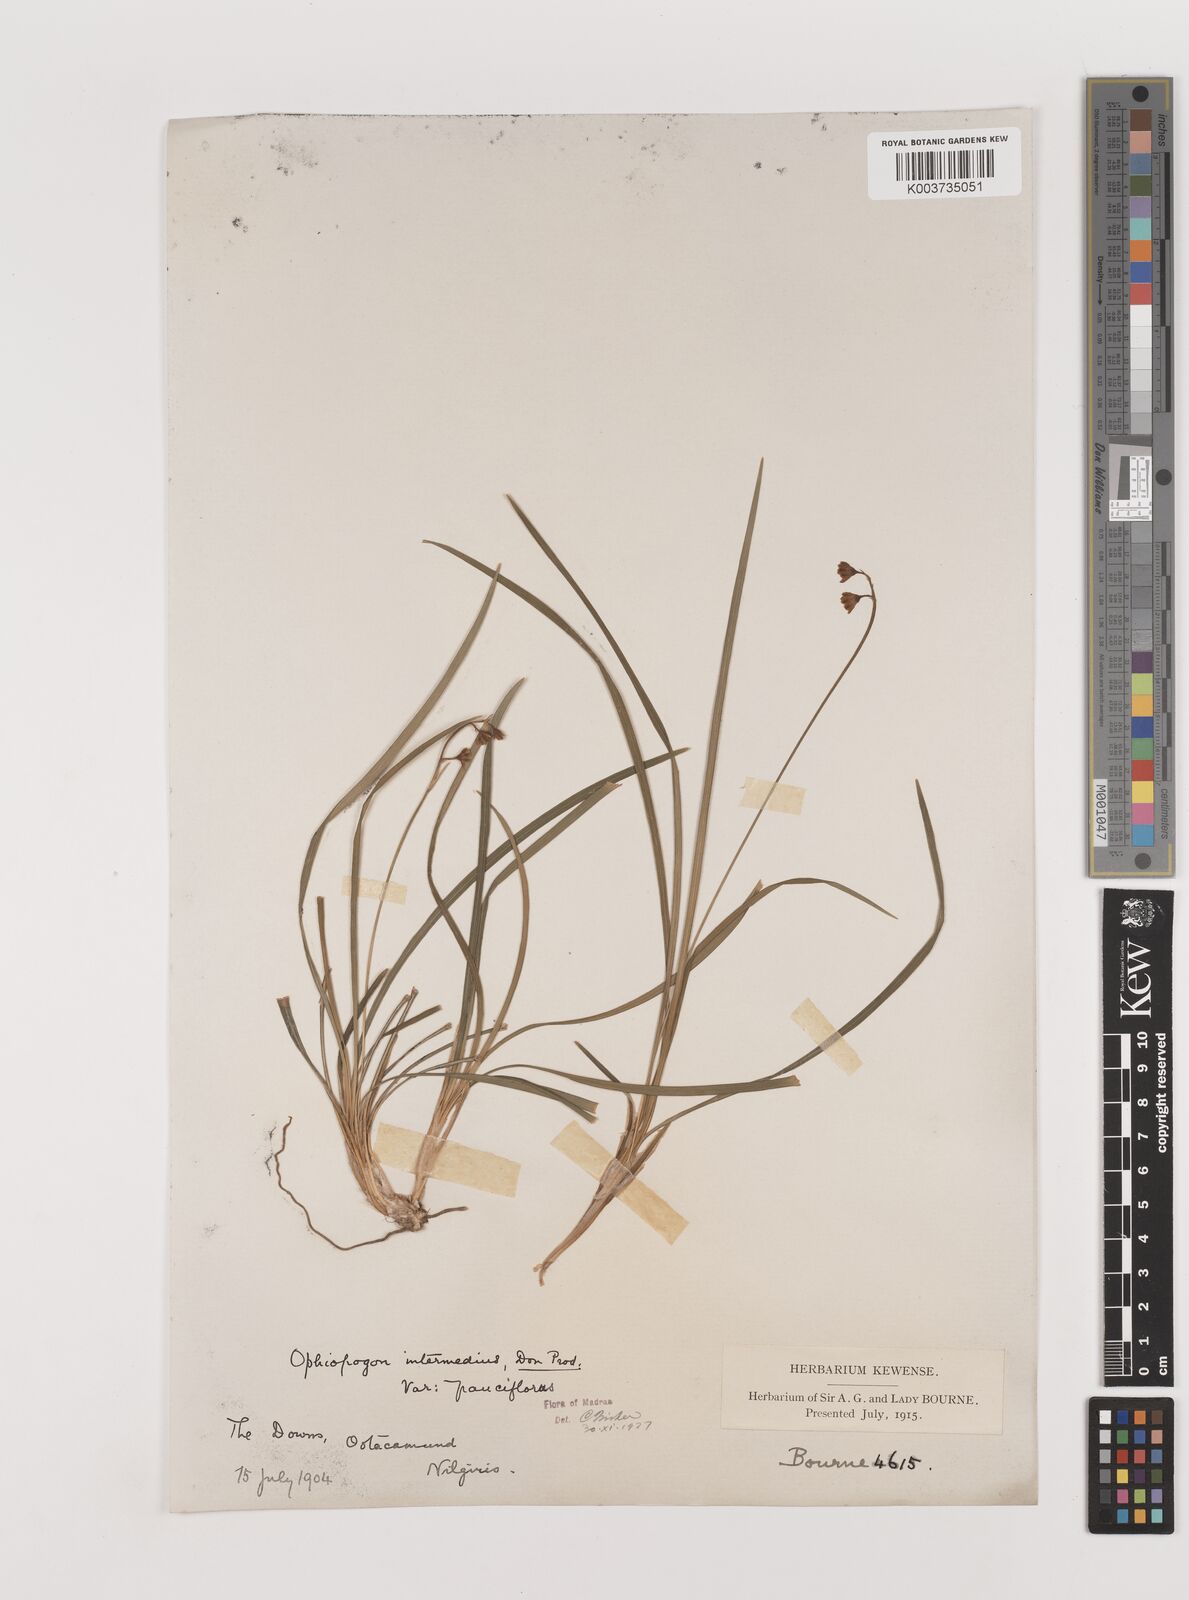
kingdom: Plantae
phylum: Tracheophyta
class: Liliopsida
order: Asparagales
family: Asparagaceae
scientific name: Asparagaceae
